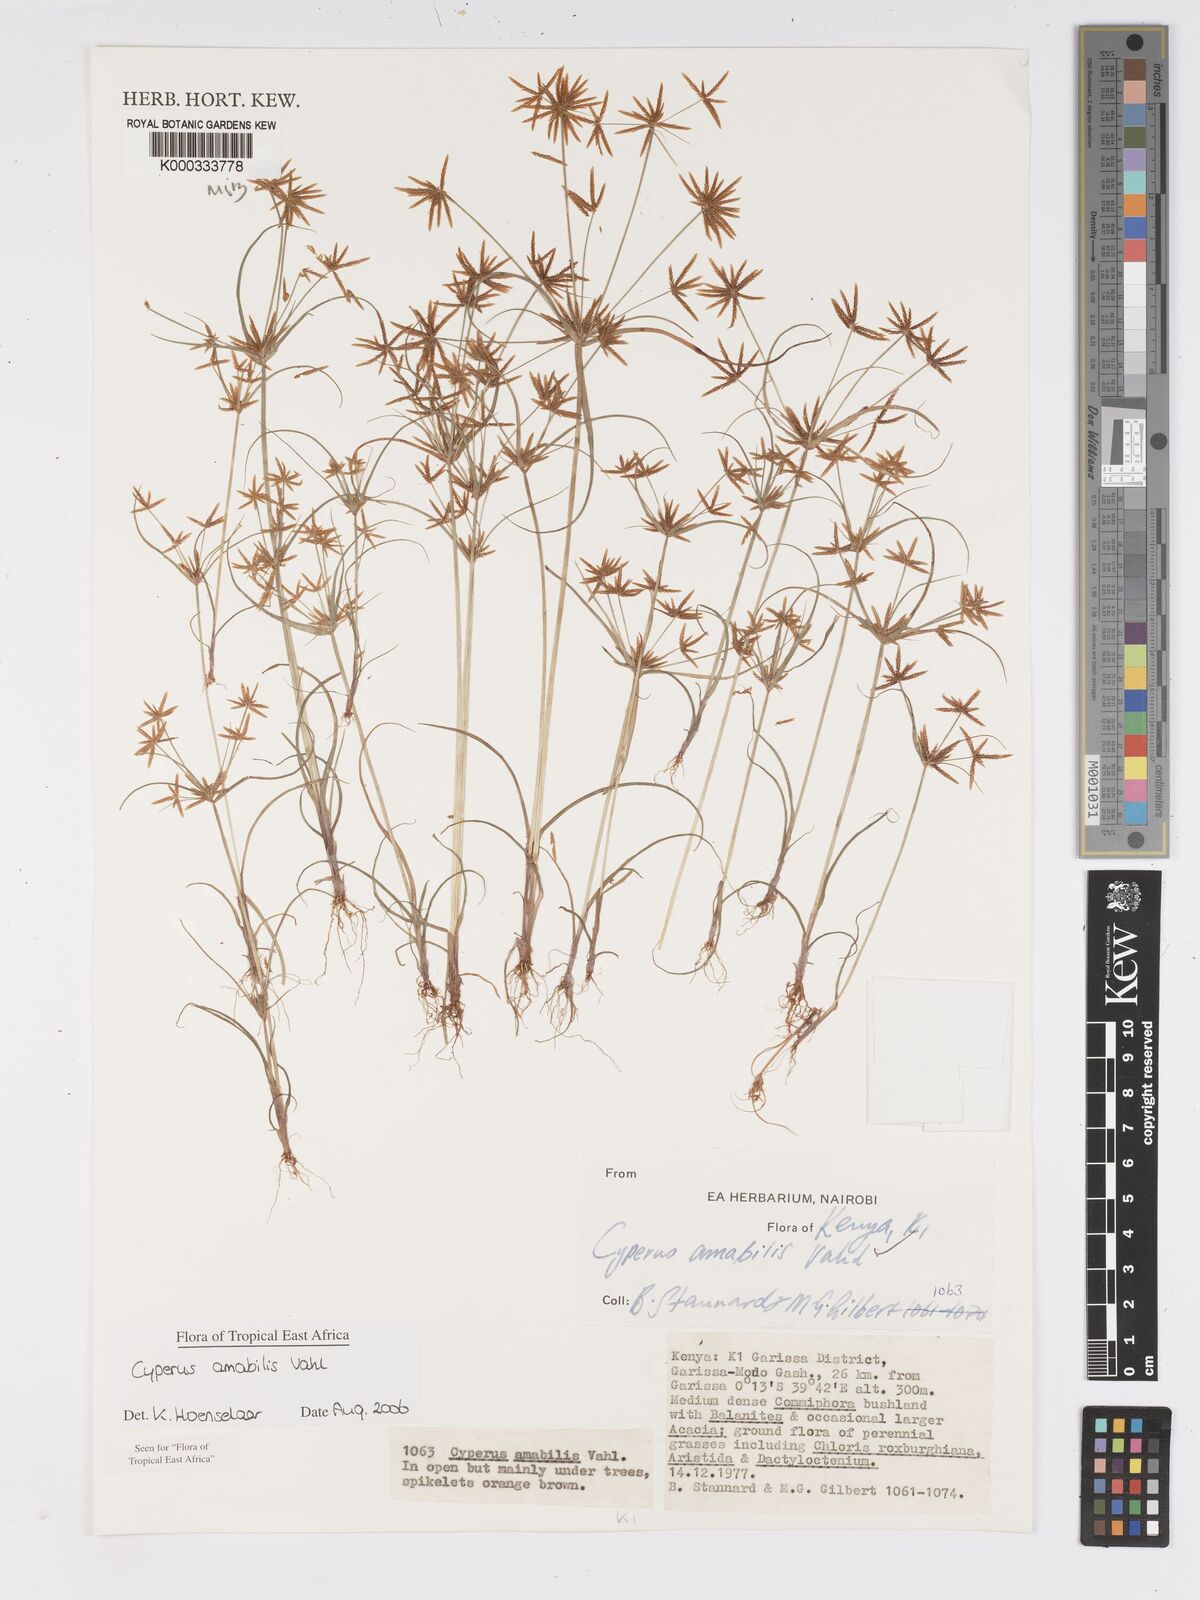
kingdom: Plantae
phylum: Tracheophyta
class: Liliopsida
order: Poales
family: Cyperaceae
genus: Cyperus
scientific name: Cyperus amabilis
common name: Foothill flat sedge
